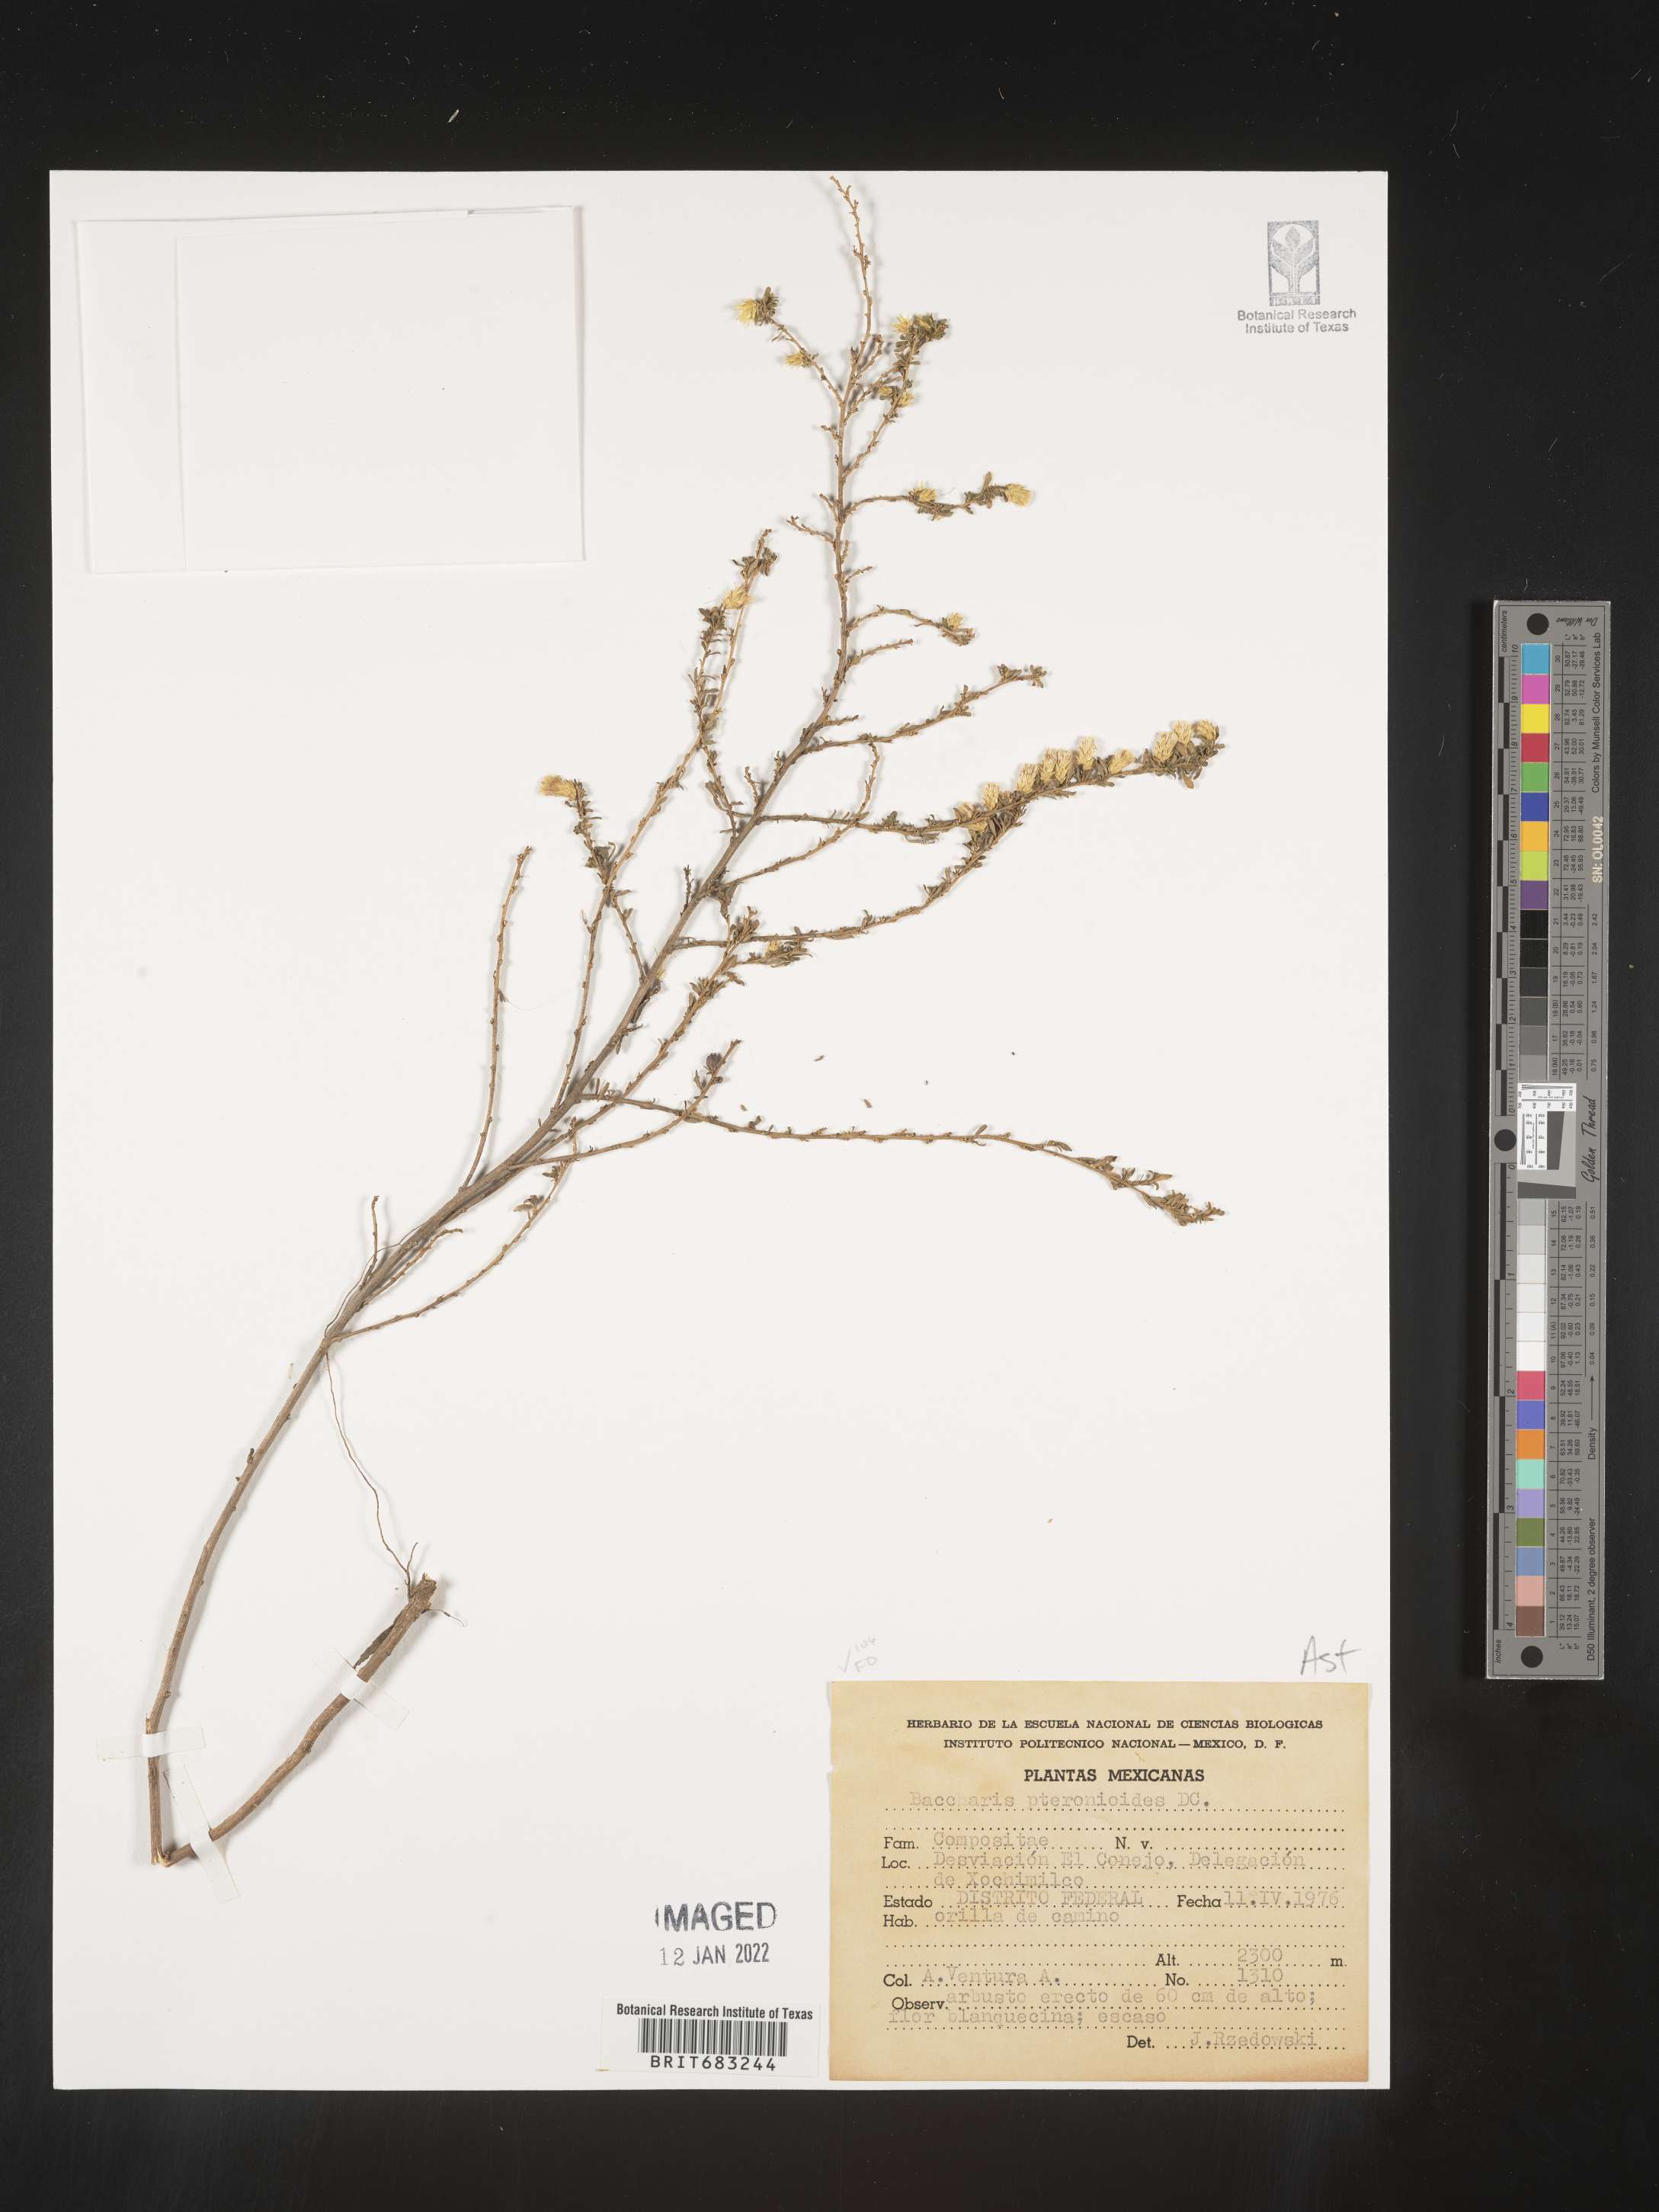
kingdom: Plantae
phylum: Tracheophyta
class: Magnoliopsida
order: Asterales
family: Asteraceae
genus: Baccharis
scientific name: Baccharis pteronioides
